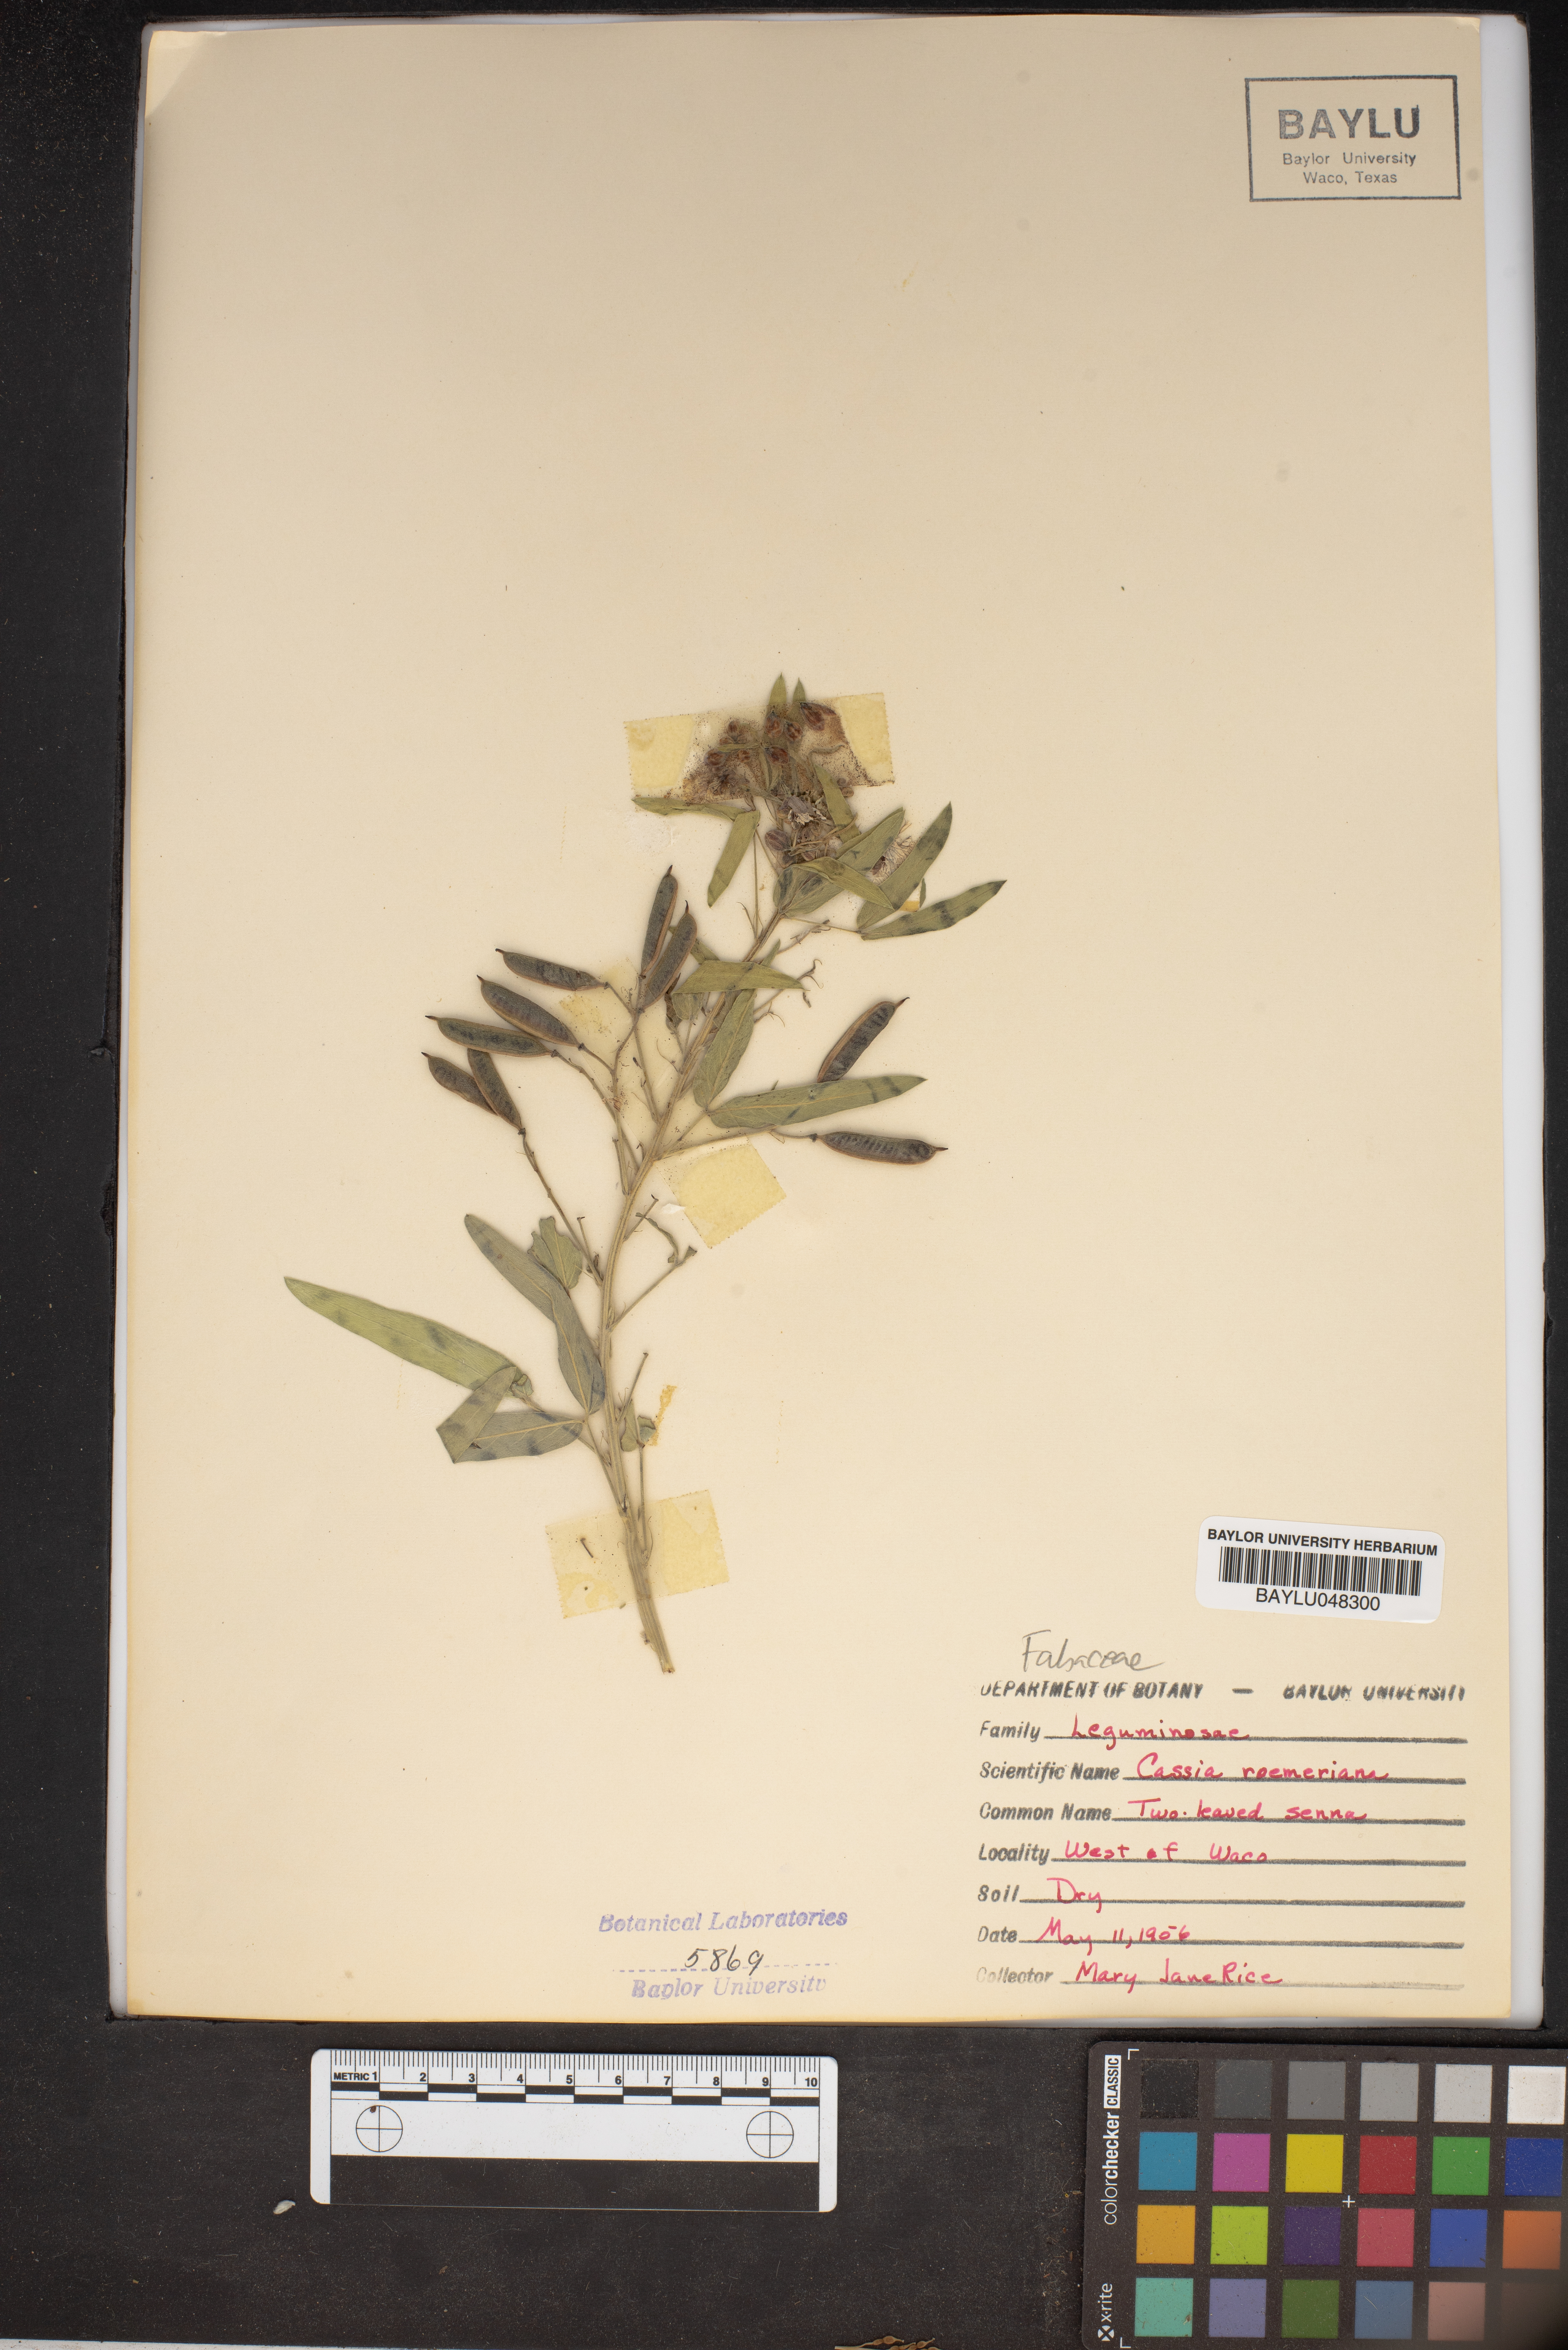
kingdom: Plantae
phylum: Tracheophyta
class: Magnoliopsida
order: Fabales
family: Fabaceae
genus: Senna
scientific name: Senna roemeriana
